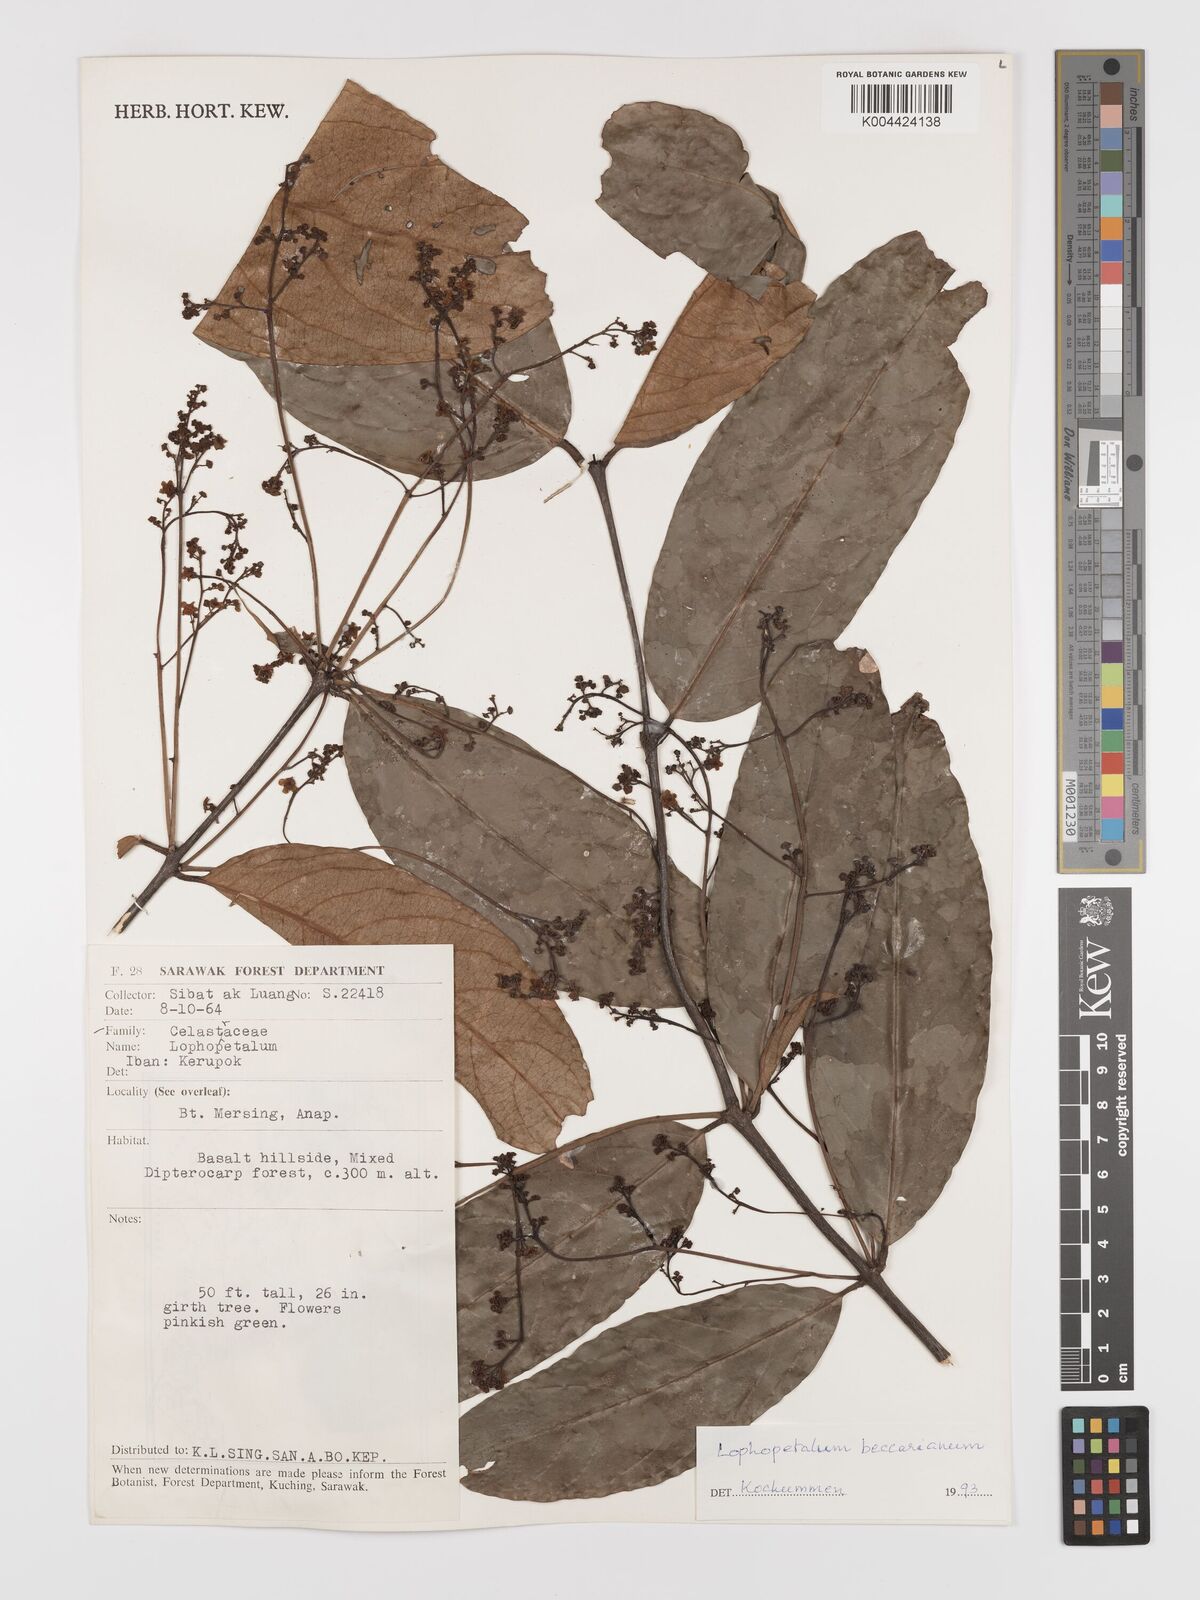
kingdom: Plantae
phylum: Tracheophyta
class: Magnoliopsida
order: Celastrales
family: Celastraceae
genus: Lophopetalum
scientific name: Lophopetalum beccarianum
